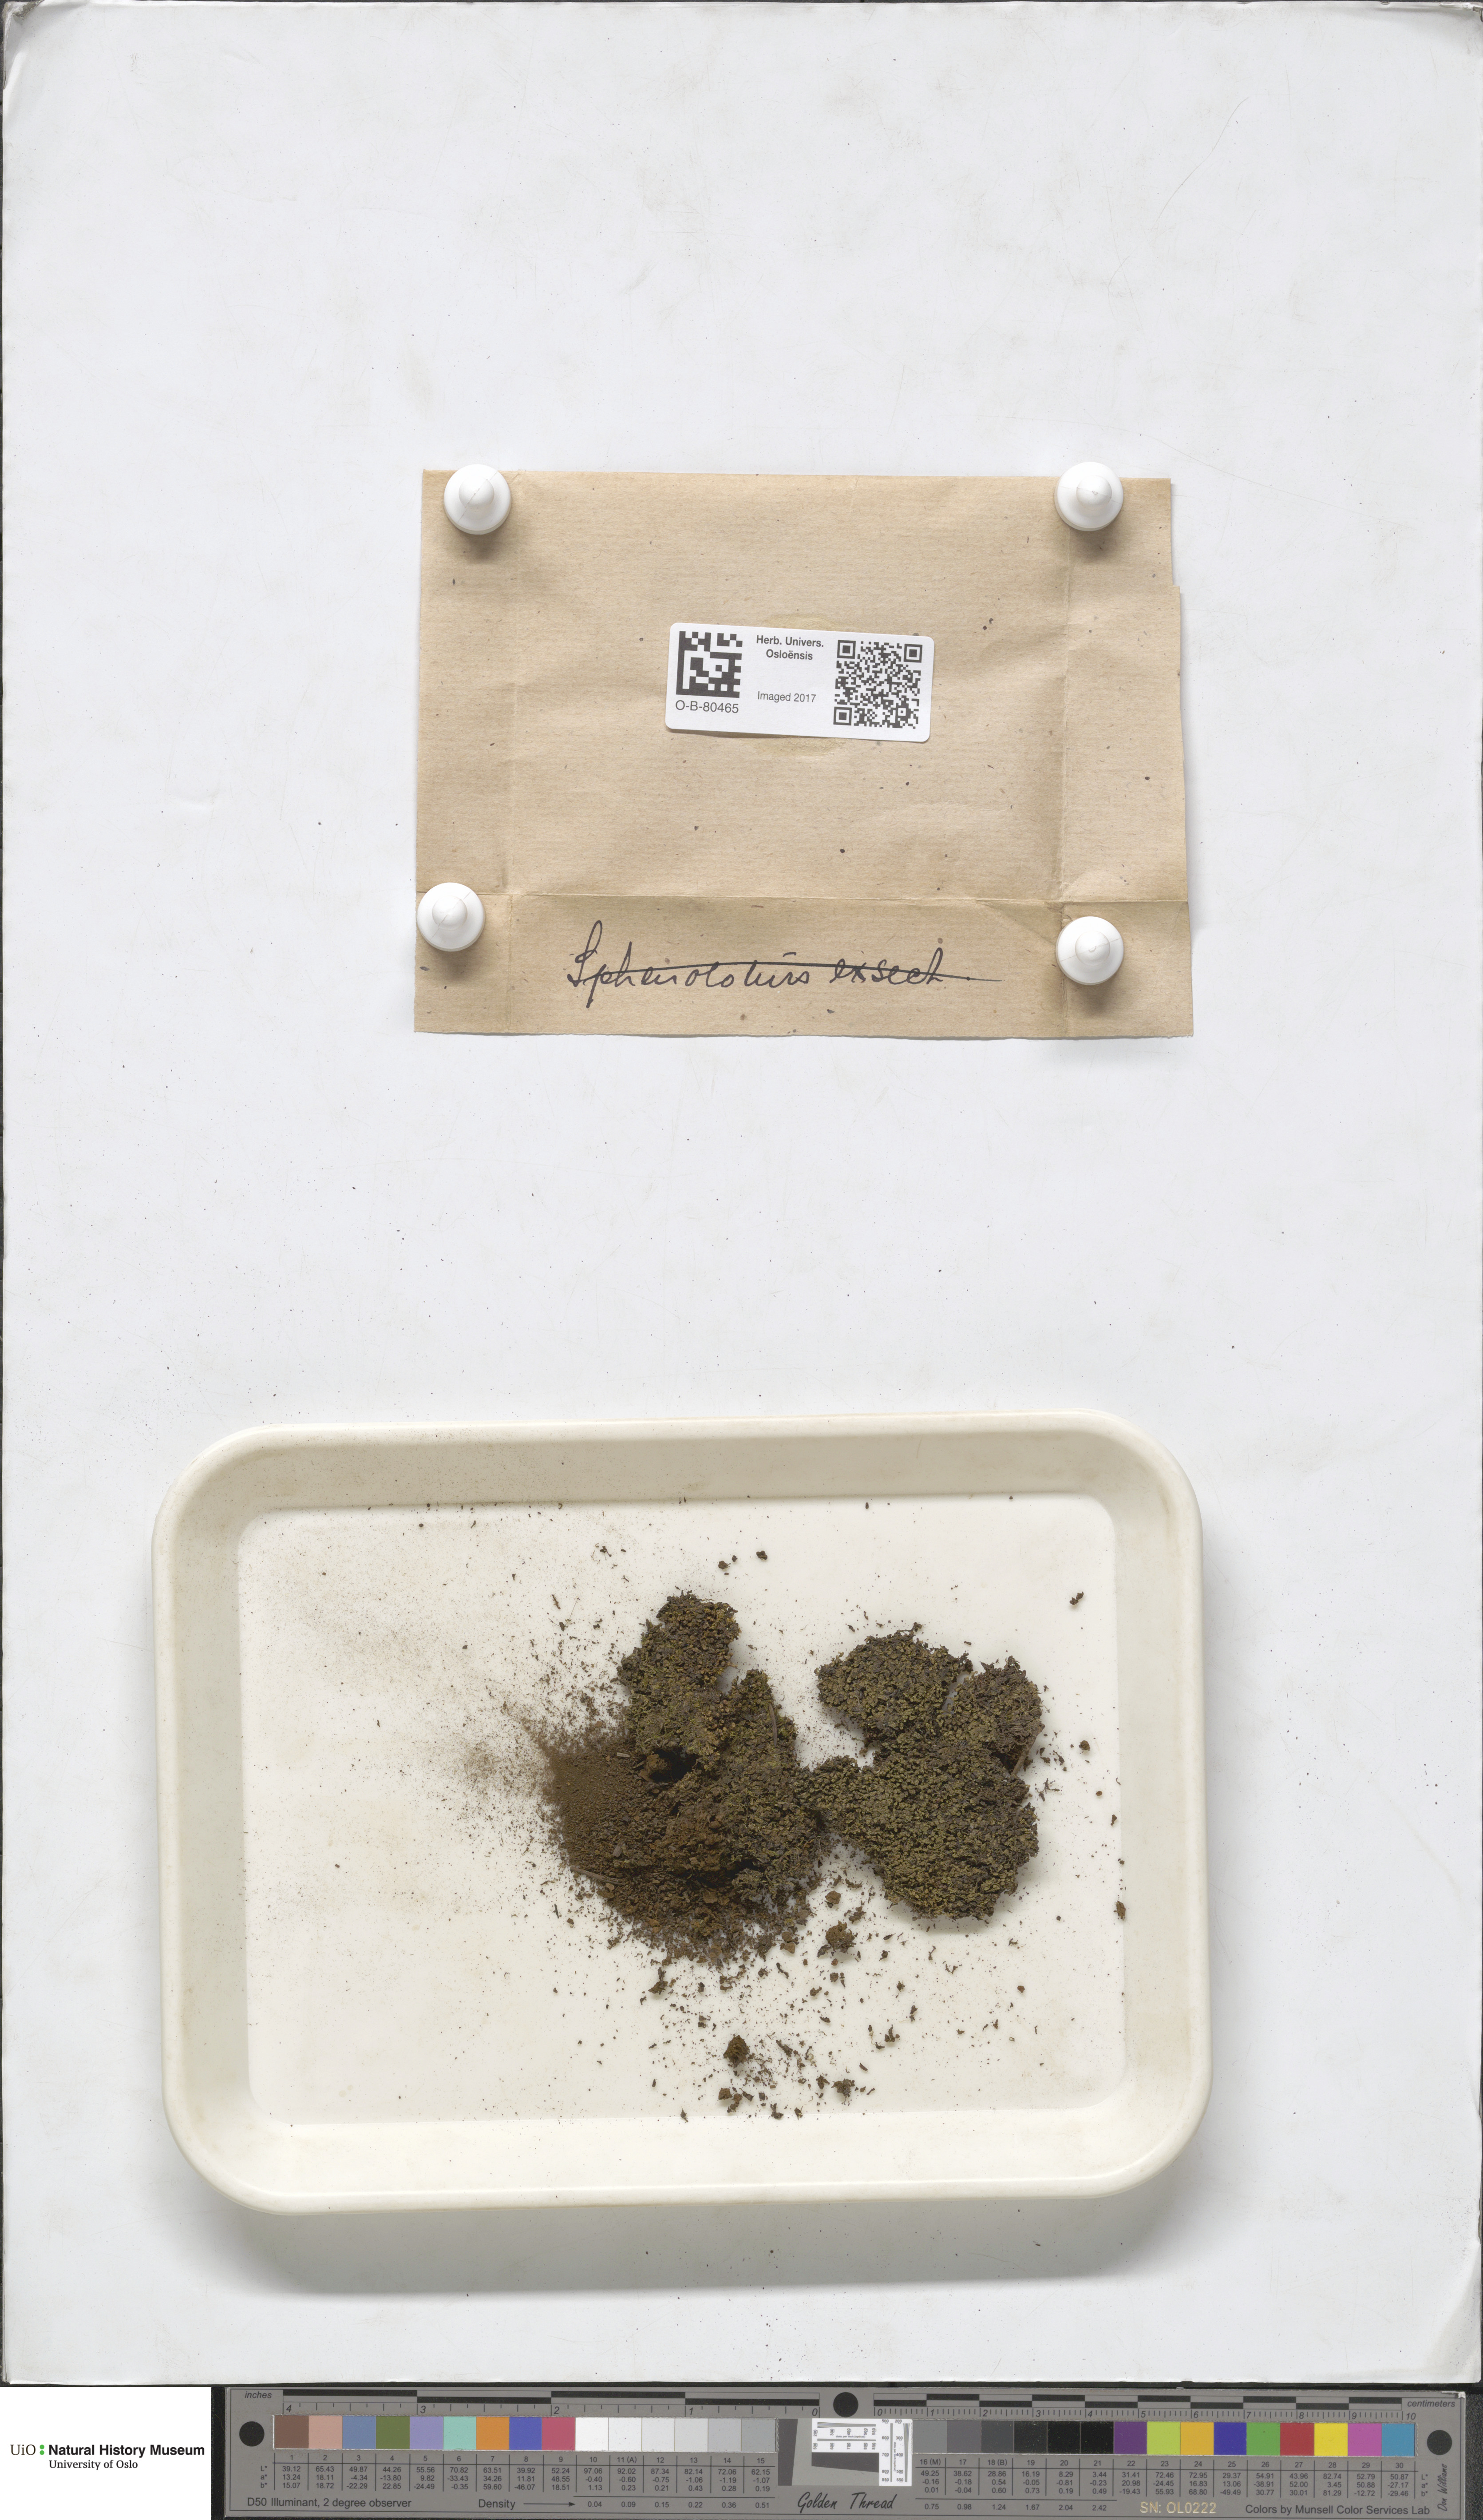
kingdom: Plantae
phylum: Marchantiophyta
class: Jungermanniopsida
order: Jungermanniales
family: Gymnomitriaceae
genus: Nardia
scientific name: Nardia geoscyphus
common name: Earth-cup flapwort
